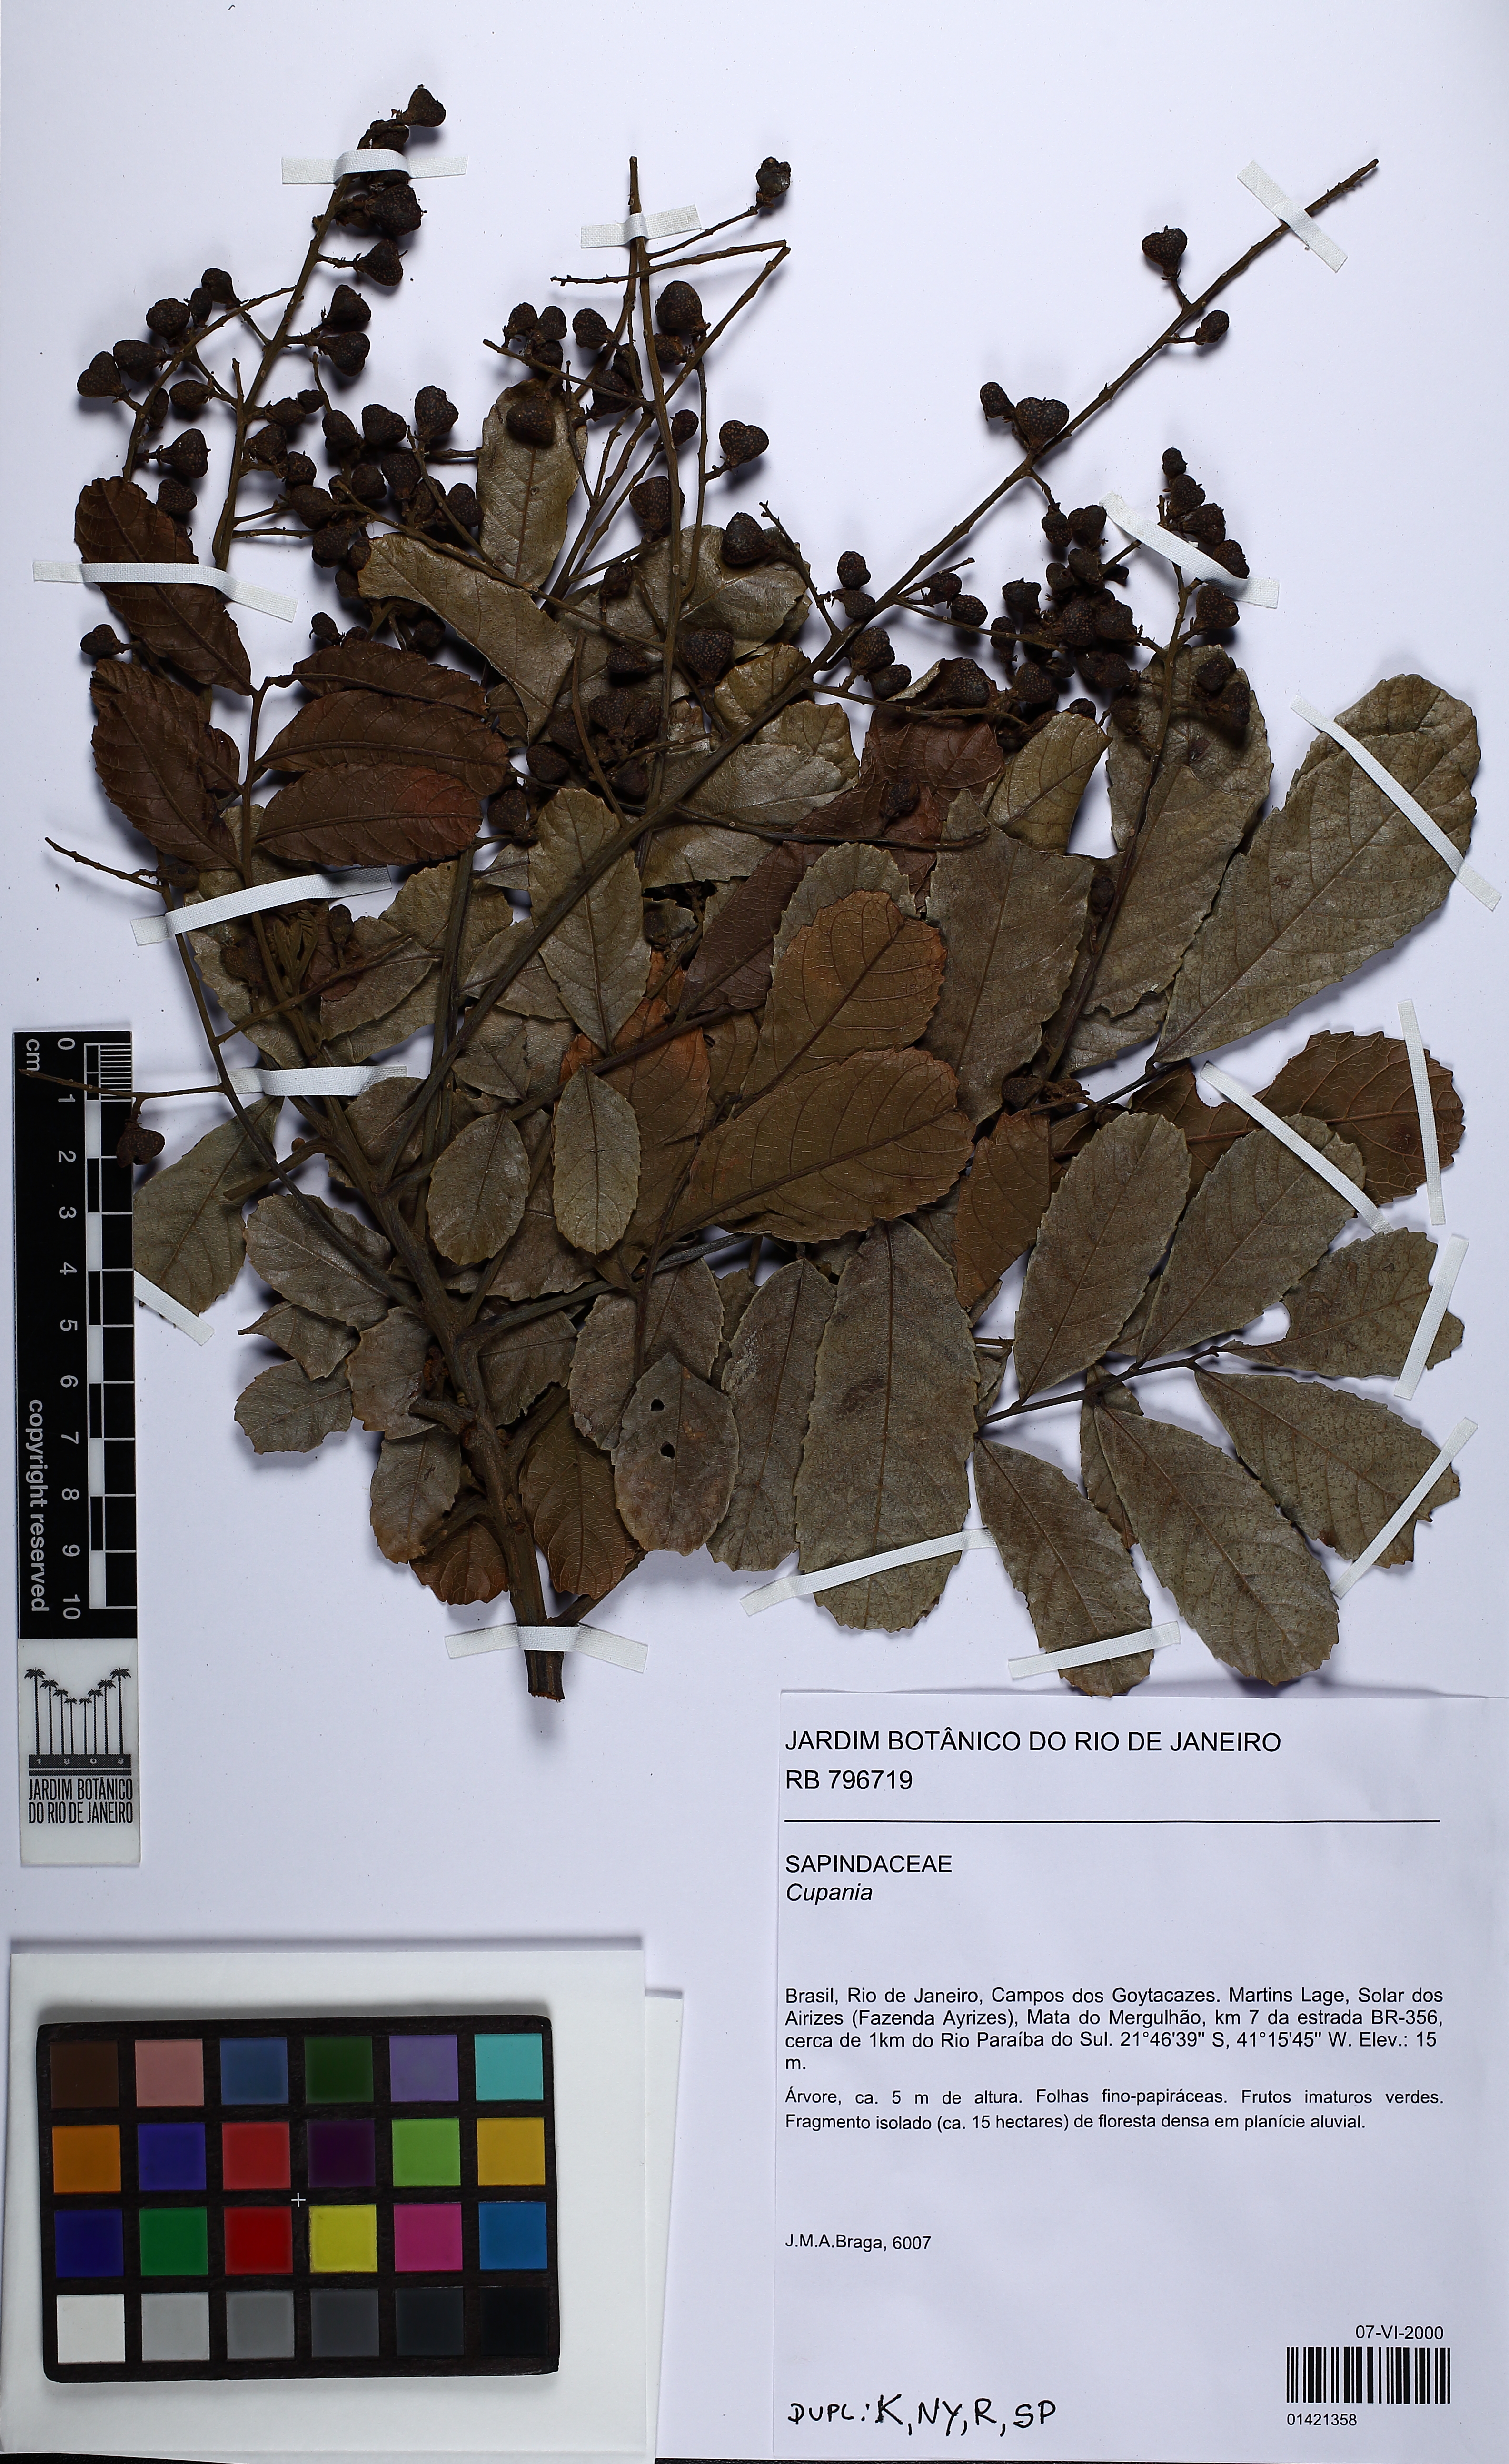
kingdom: Plantae
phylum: Tracheophyta
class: Magnoliopsida
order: Sapindales
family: Sapindaceae
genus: Cupania
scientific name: Cupania
